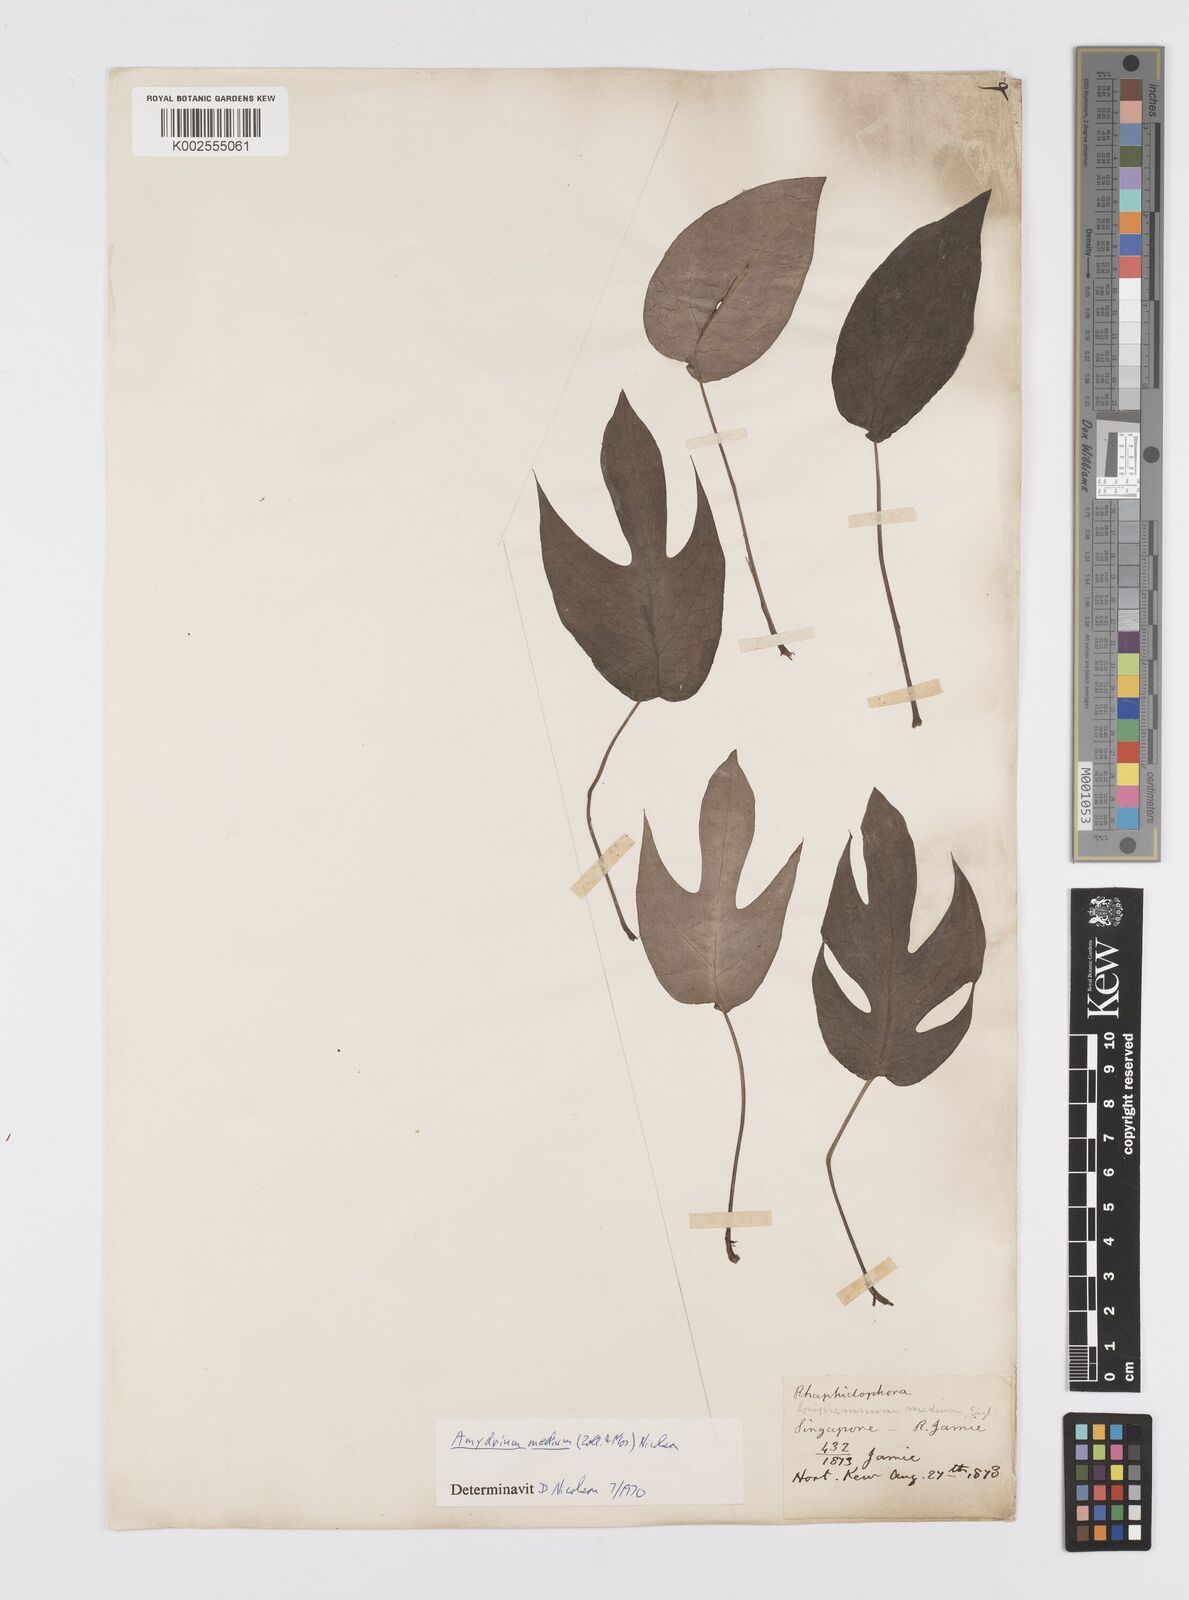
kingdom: Plantae
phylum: Tracheophyta
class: Liliopsida
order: Alismatales
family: Araceae
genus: Amydrium
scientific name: Amydrium medium
